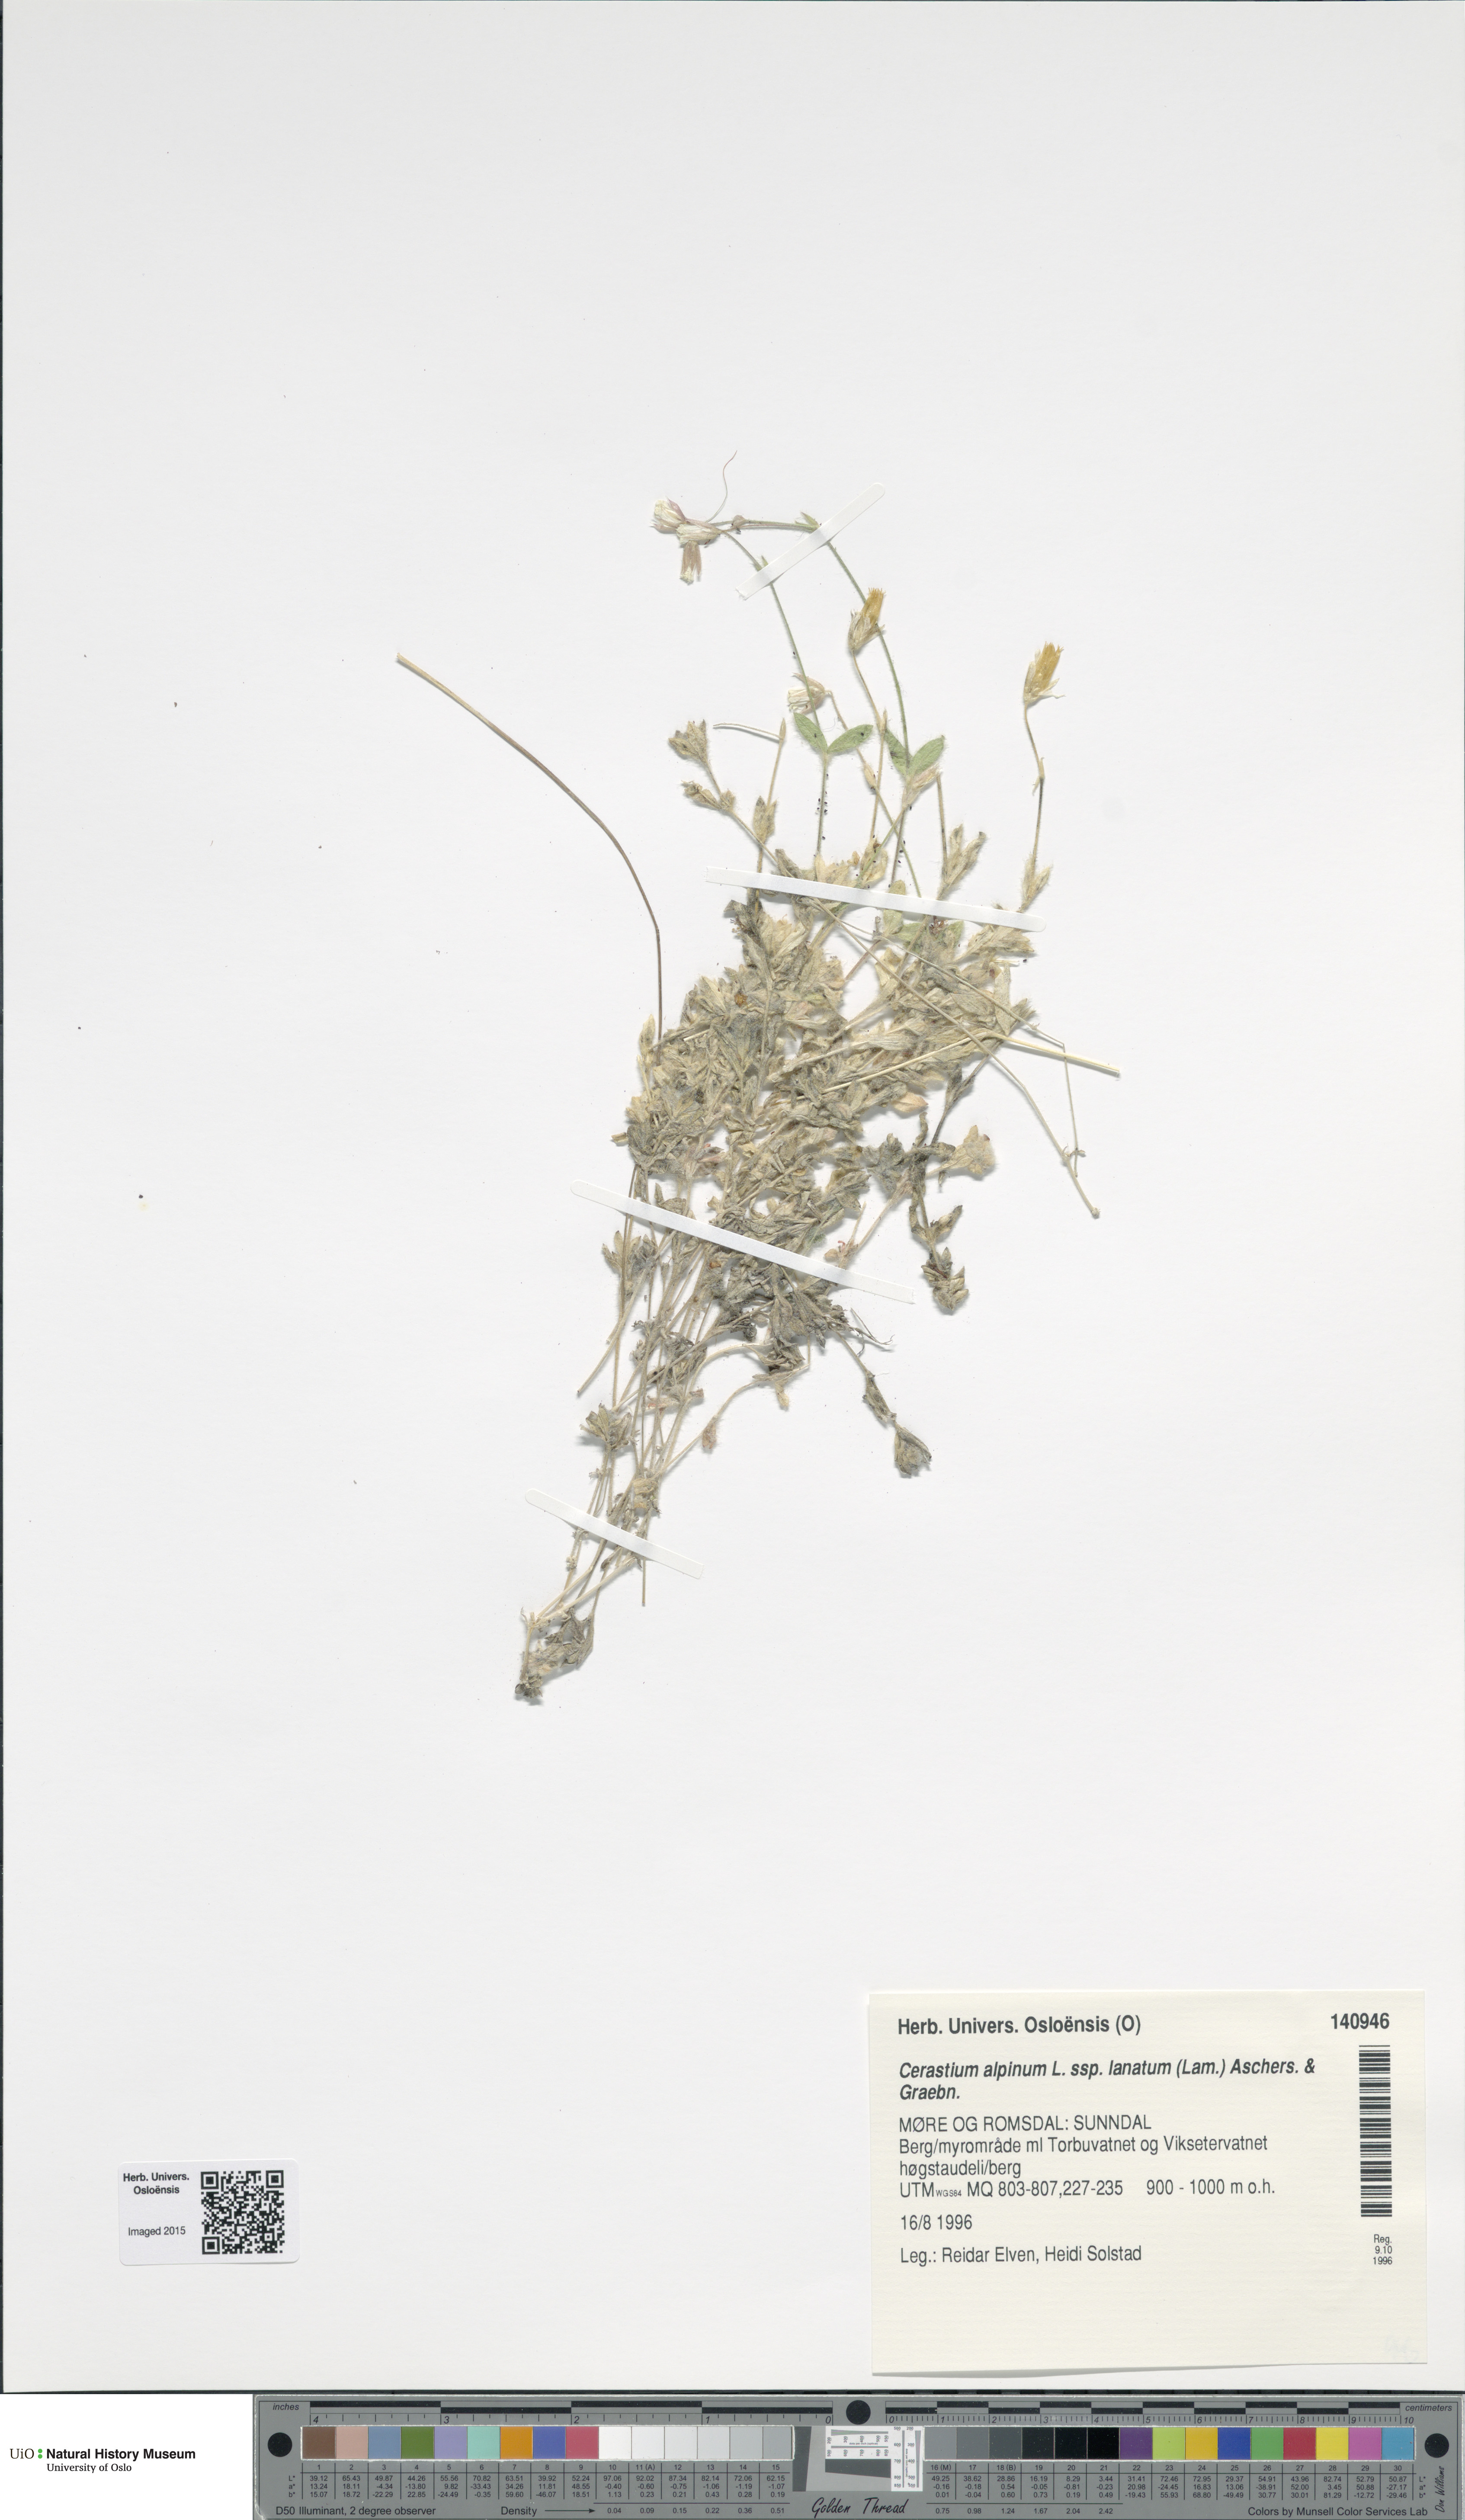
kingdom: Plantae
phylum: Tracheophyta
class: Magnoliopsida
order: Caryophyllales
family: Caryophyllaceae
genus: Cerastium
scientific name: Cerastium alpinum
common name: Alpine mouse-ear
